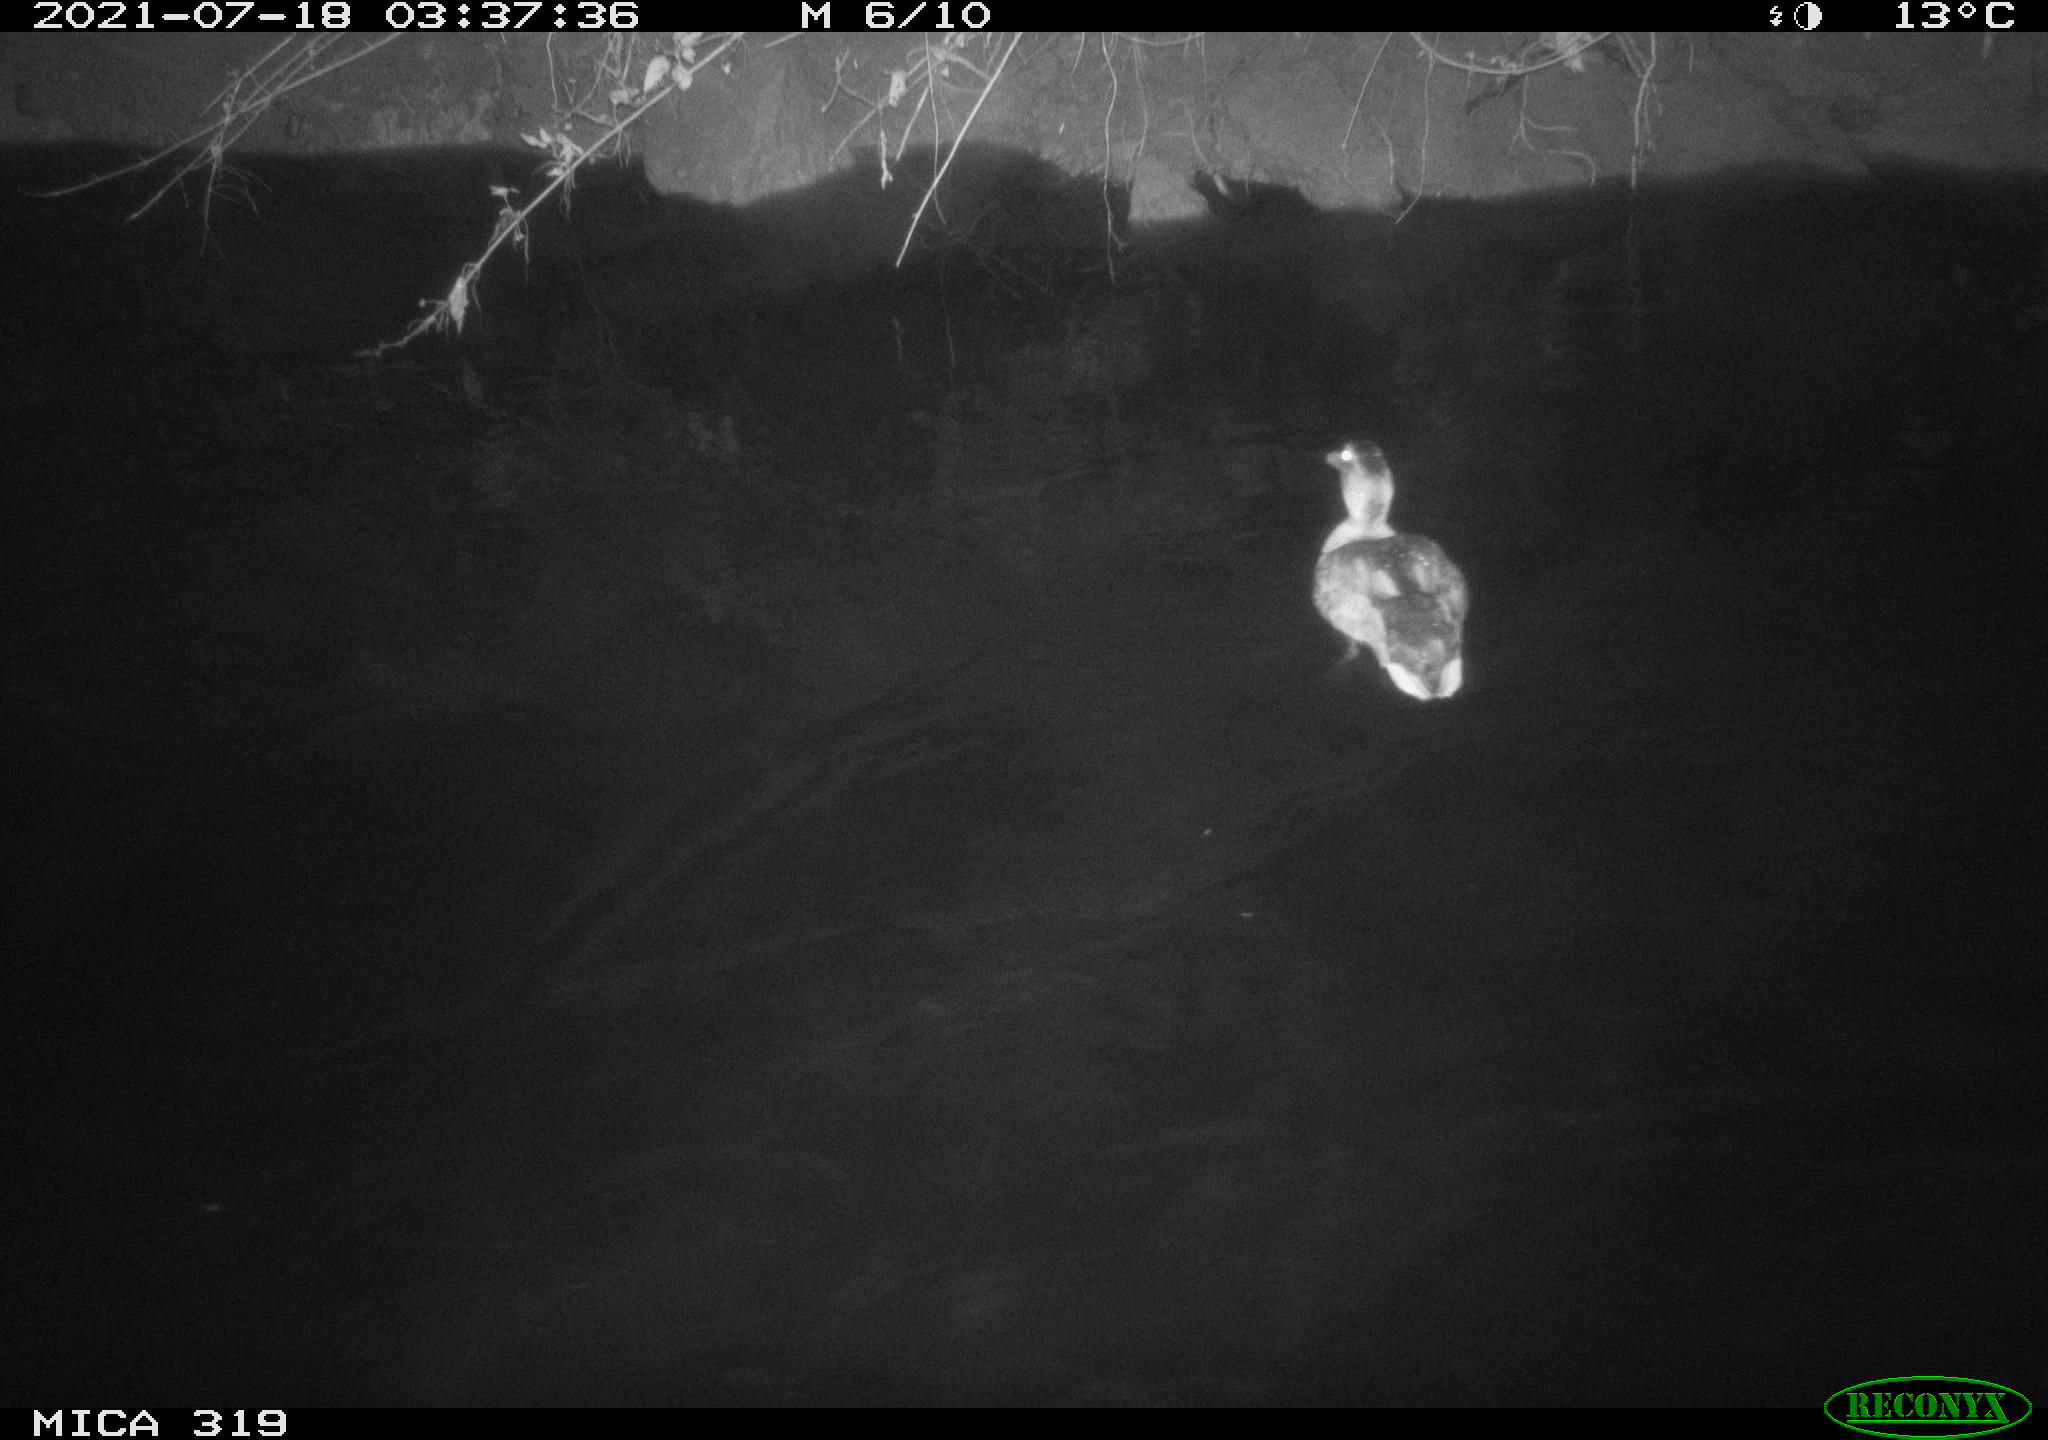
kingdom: Animalia
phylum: Chordata
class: Aves
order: Anseriformes
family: Anatidae
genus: Anas
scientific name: Anas platyrhynchos
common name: Mallard
